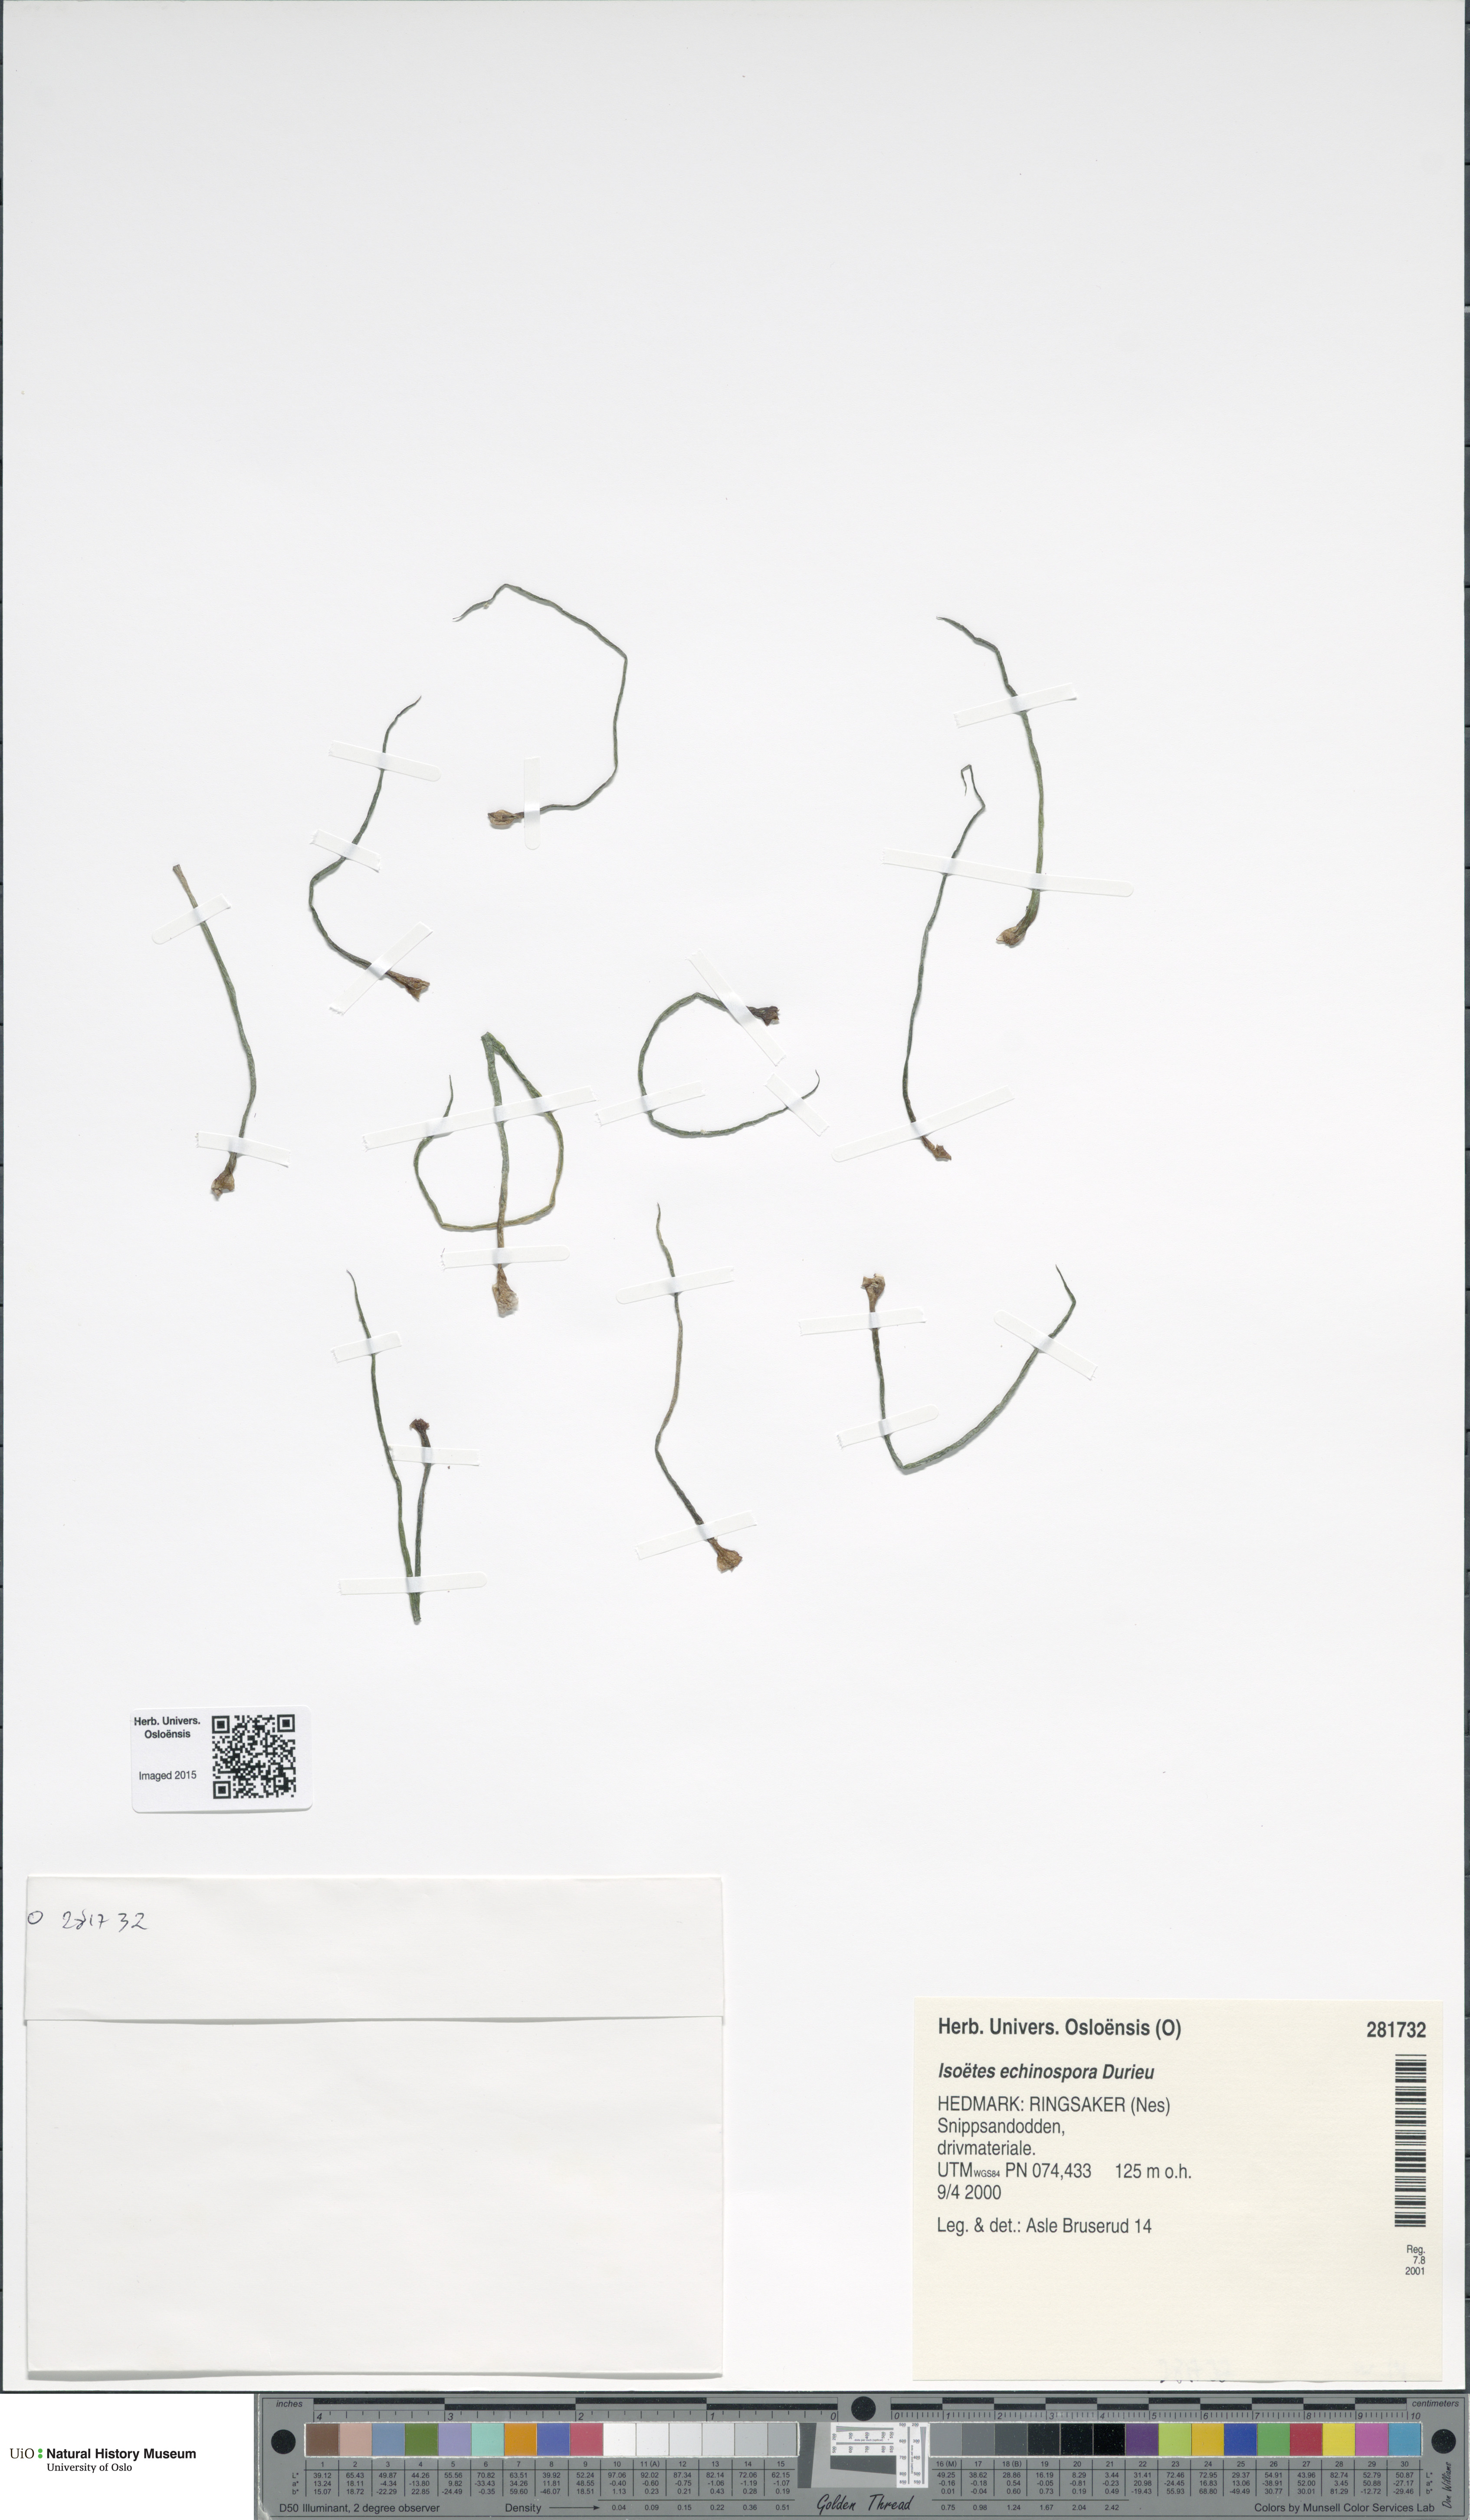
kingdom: Plantae
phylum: Tracheophyta
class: Lycopodiopsida
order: Isoetales
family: Isoetaceae
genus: Isoetes
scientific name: Isoetes echinospora
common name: Spring quillwort
